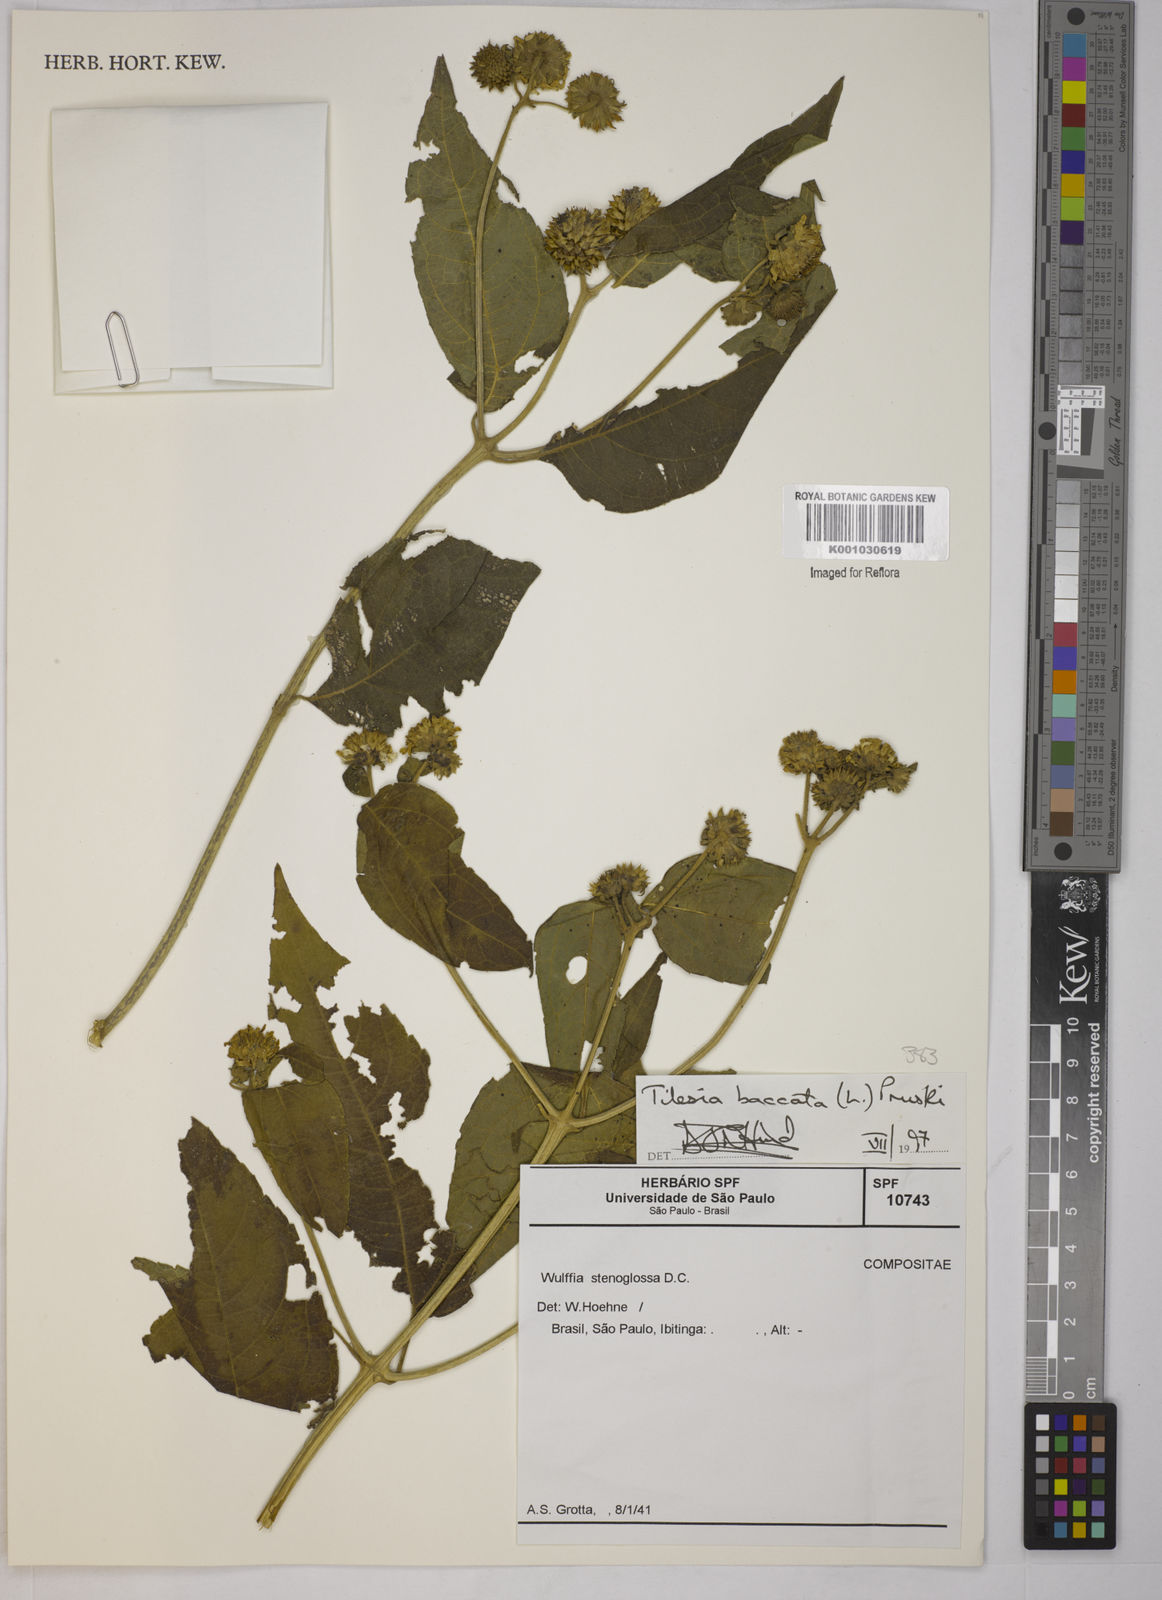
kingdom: Plantae
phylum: Tracheophyta
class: Magnoliopsida
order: Asterales
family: Asteraceae
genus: Tilesia
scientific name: Tilesia baccata
